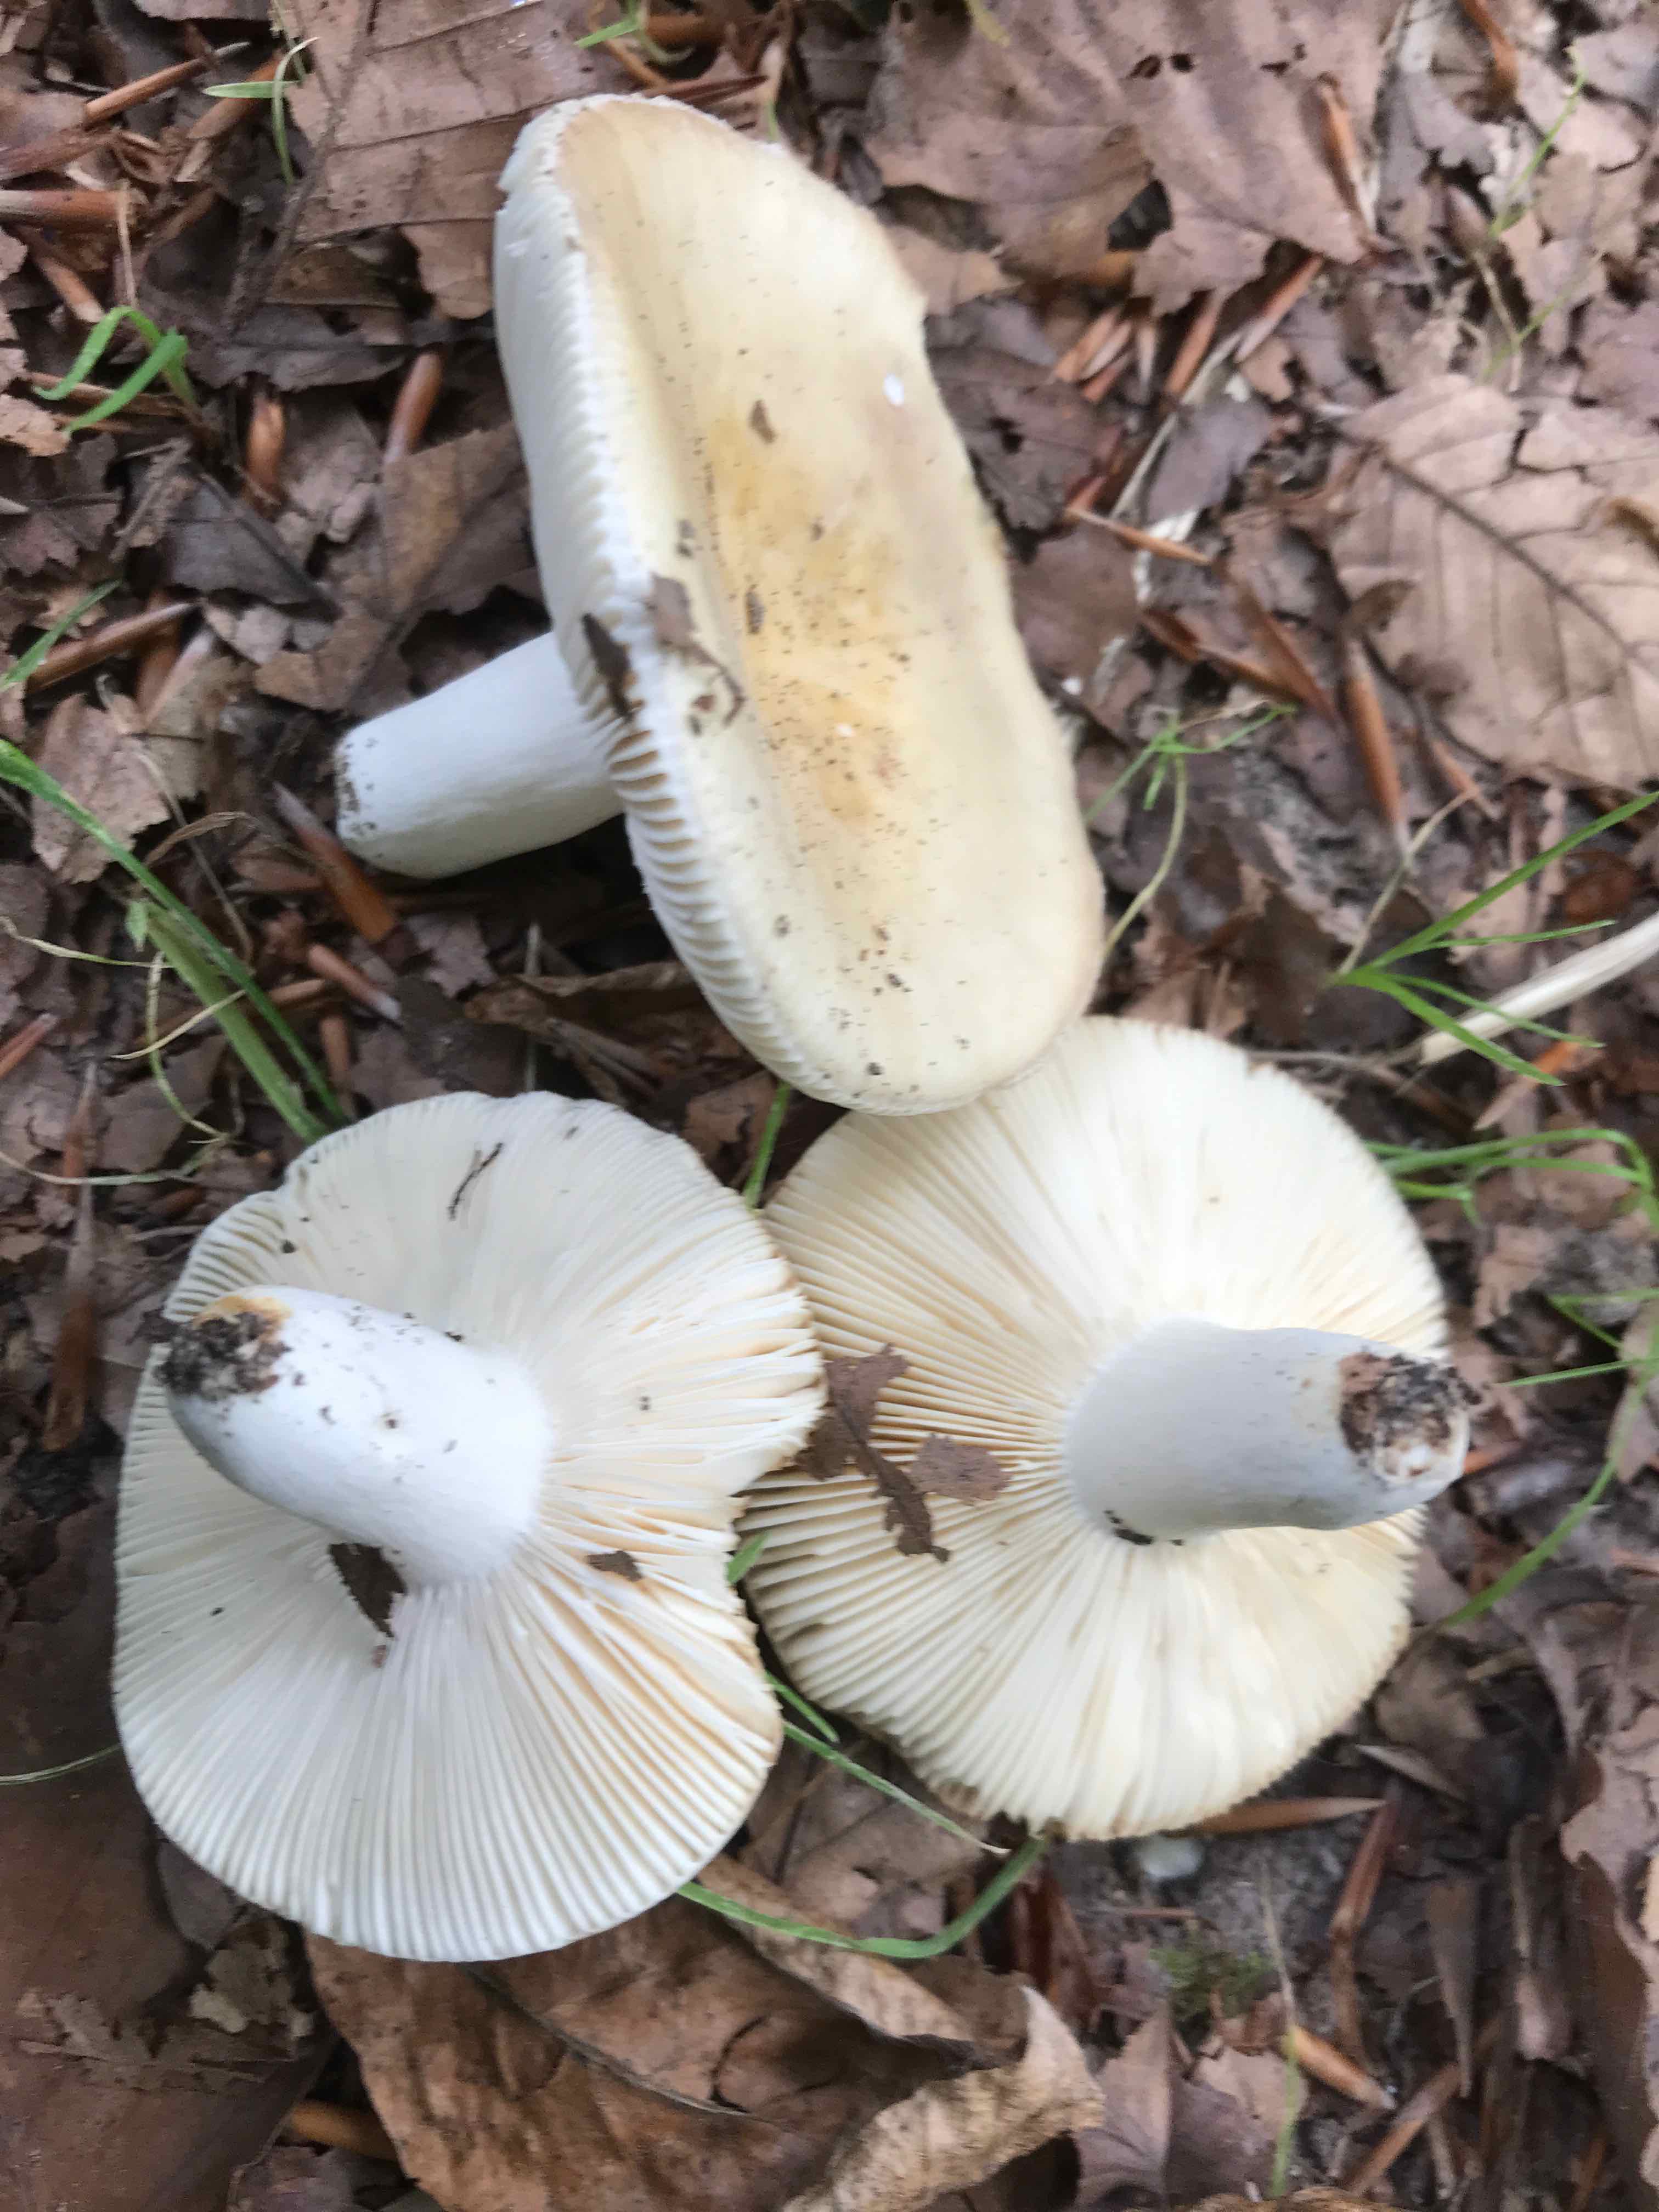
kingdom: Fungi
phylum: Basidiomycota
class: Agaricomycetes
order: Russulales
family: Russulaceae
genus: Russula
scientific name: Russula
